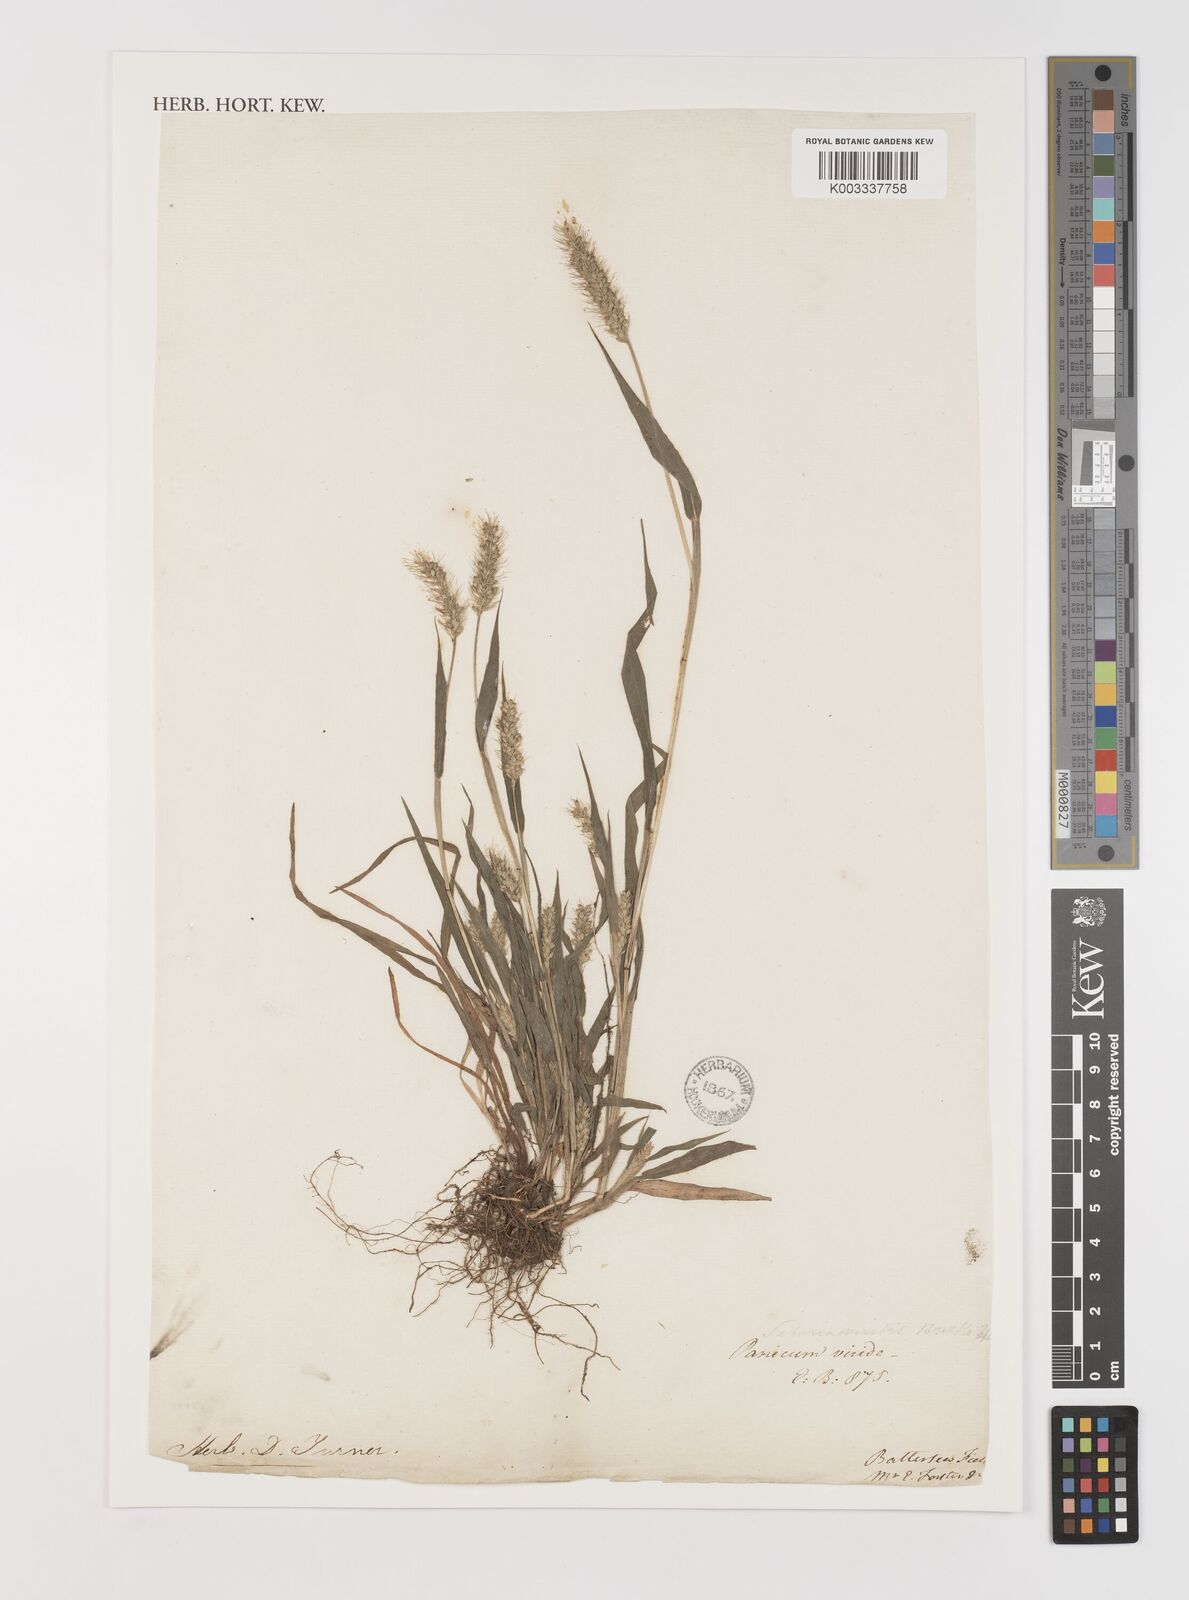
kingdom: Plantae
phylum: Tracheophyta
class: Liliopsida
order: Poales
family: Poaceae
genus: Setaria
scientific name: Setaria viridis
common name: Green bristlegrass
